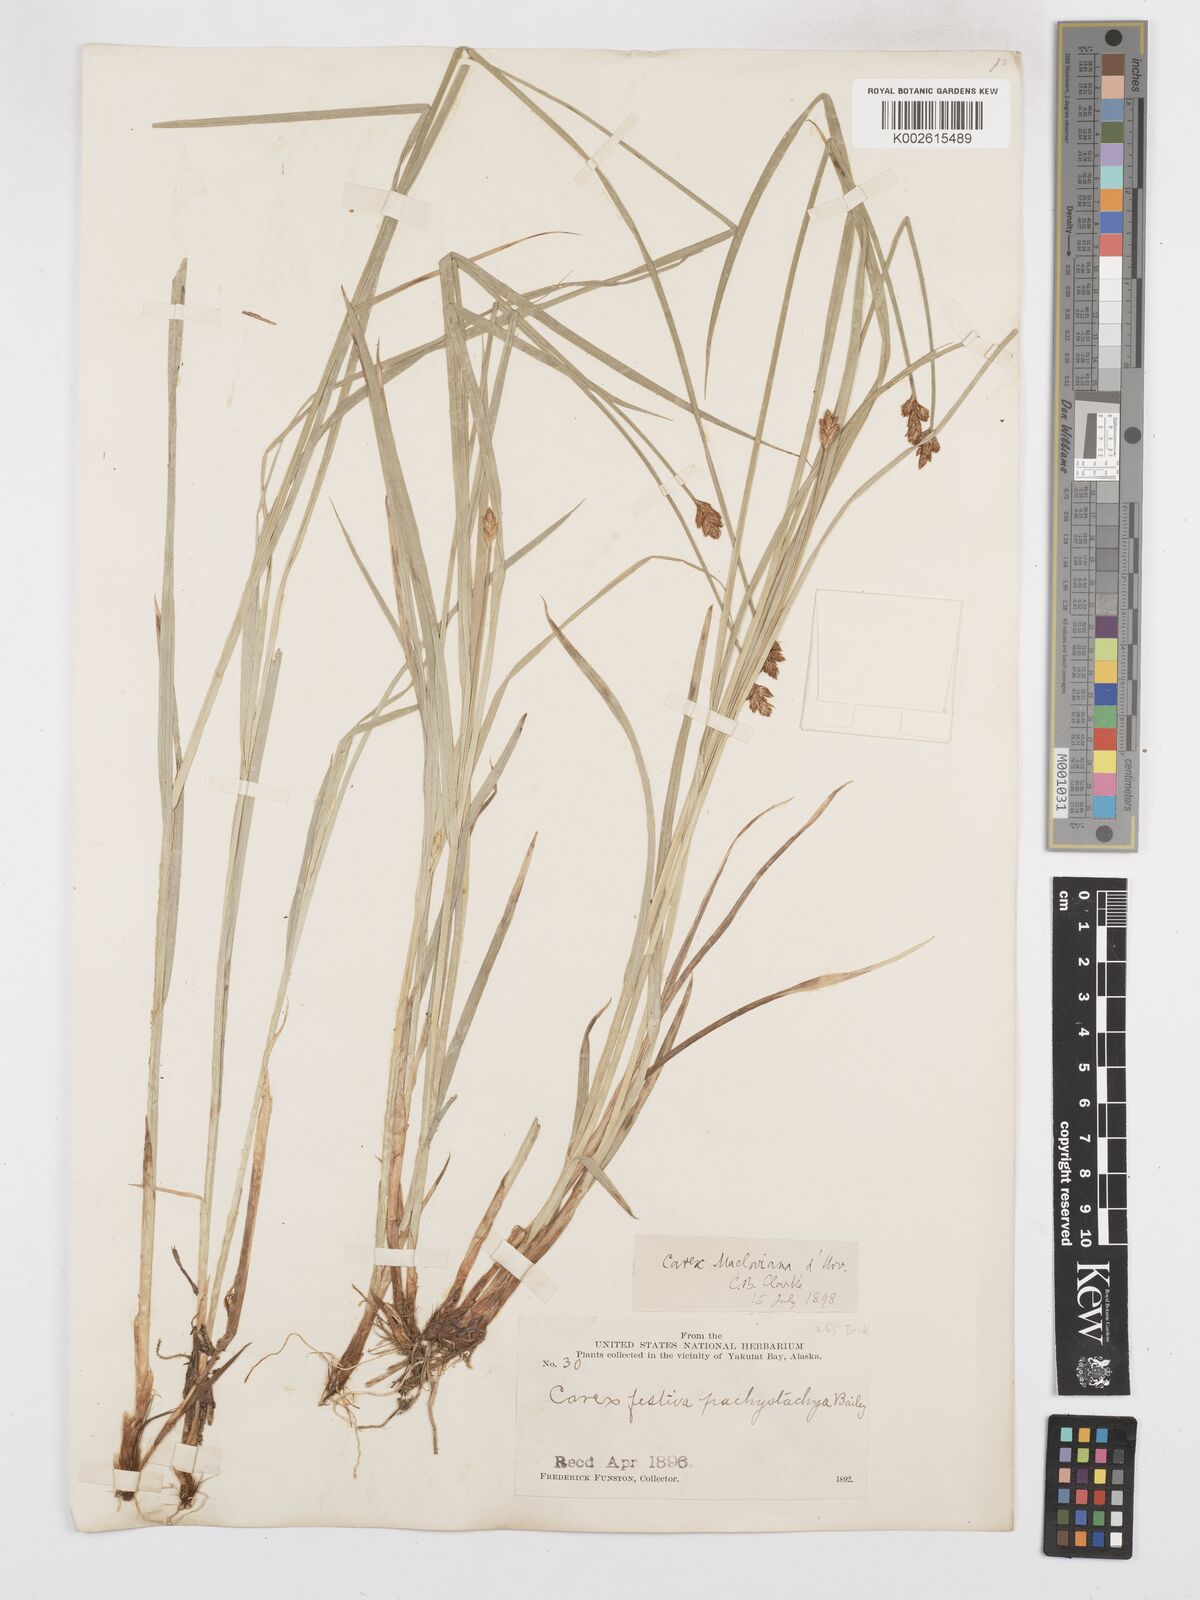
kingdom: Plantae
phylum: Tracheophyta
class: Liliopsida
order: Poales
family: Cyperaceae
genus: Carex
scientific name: Carex macloviana
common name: Falkland island sedge
